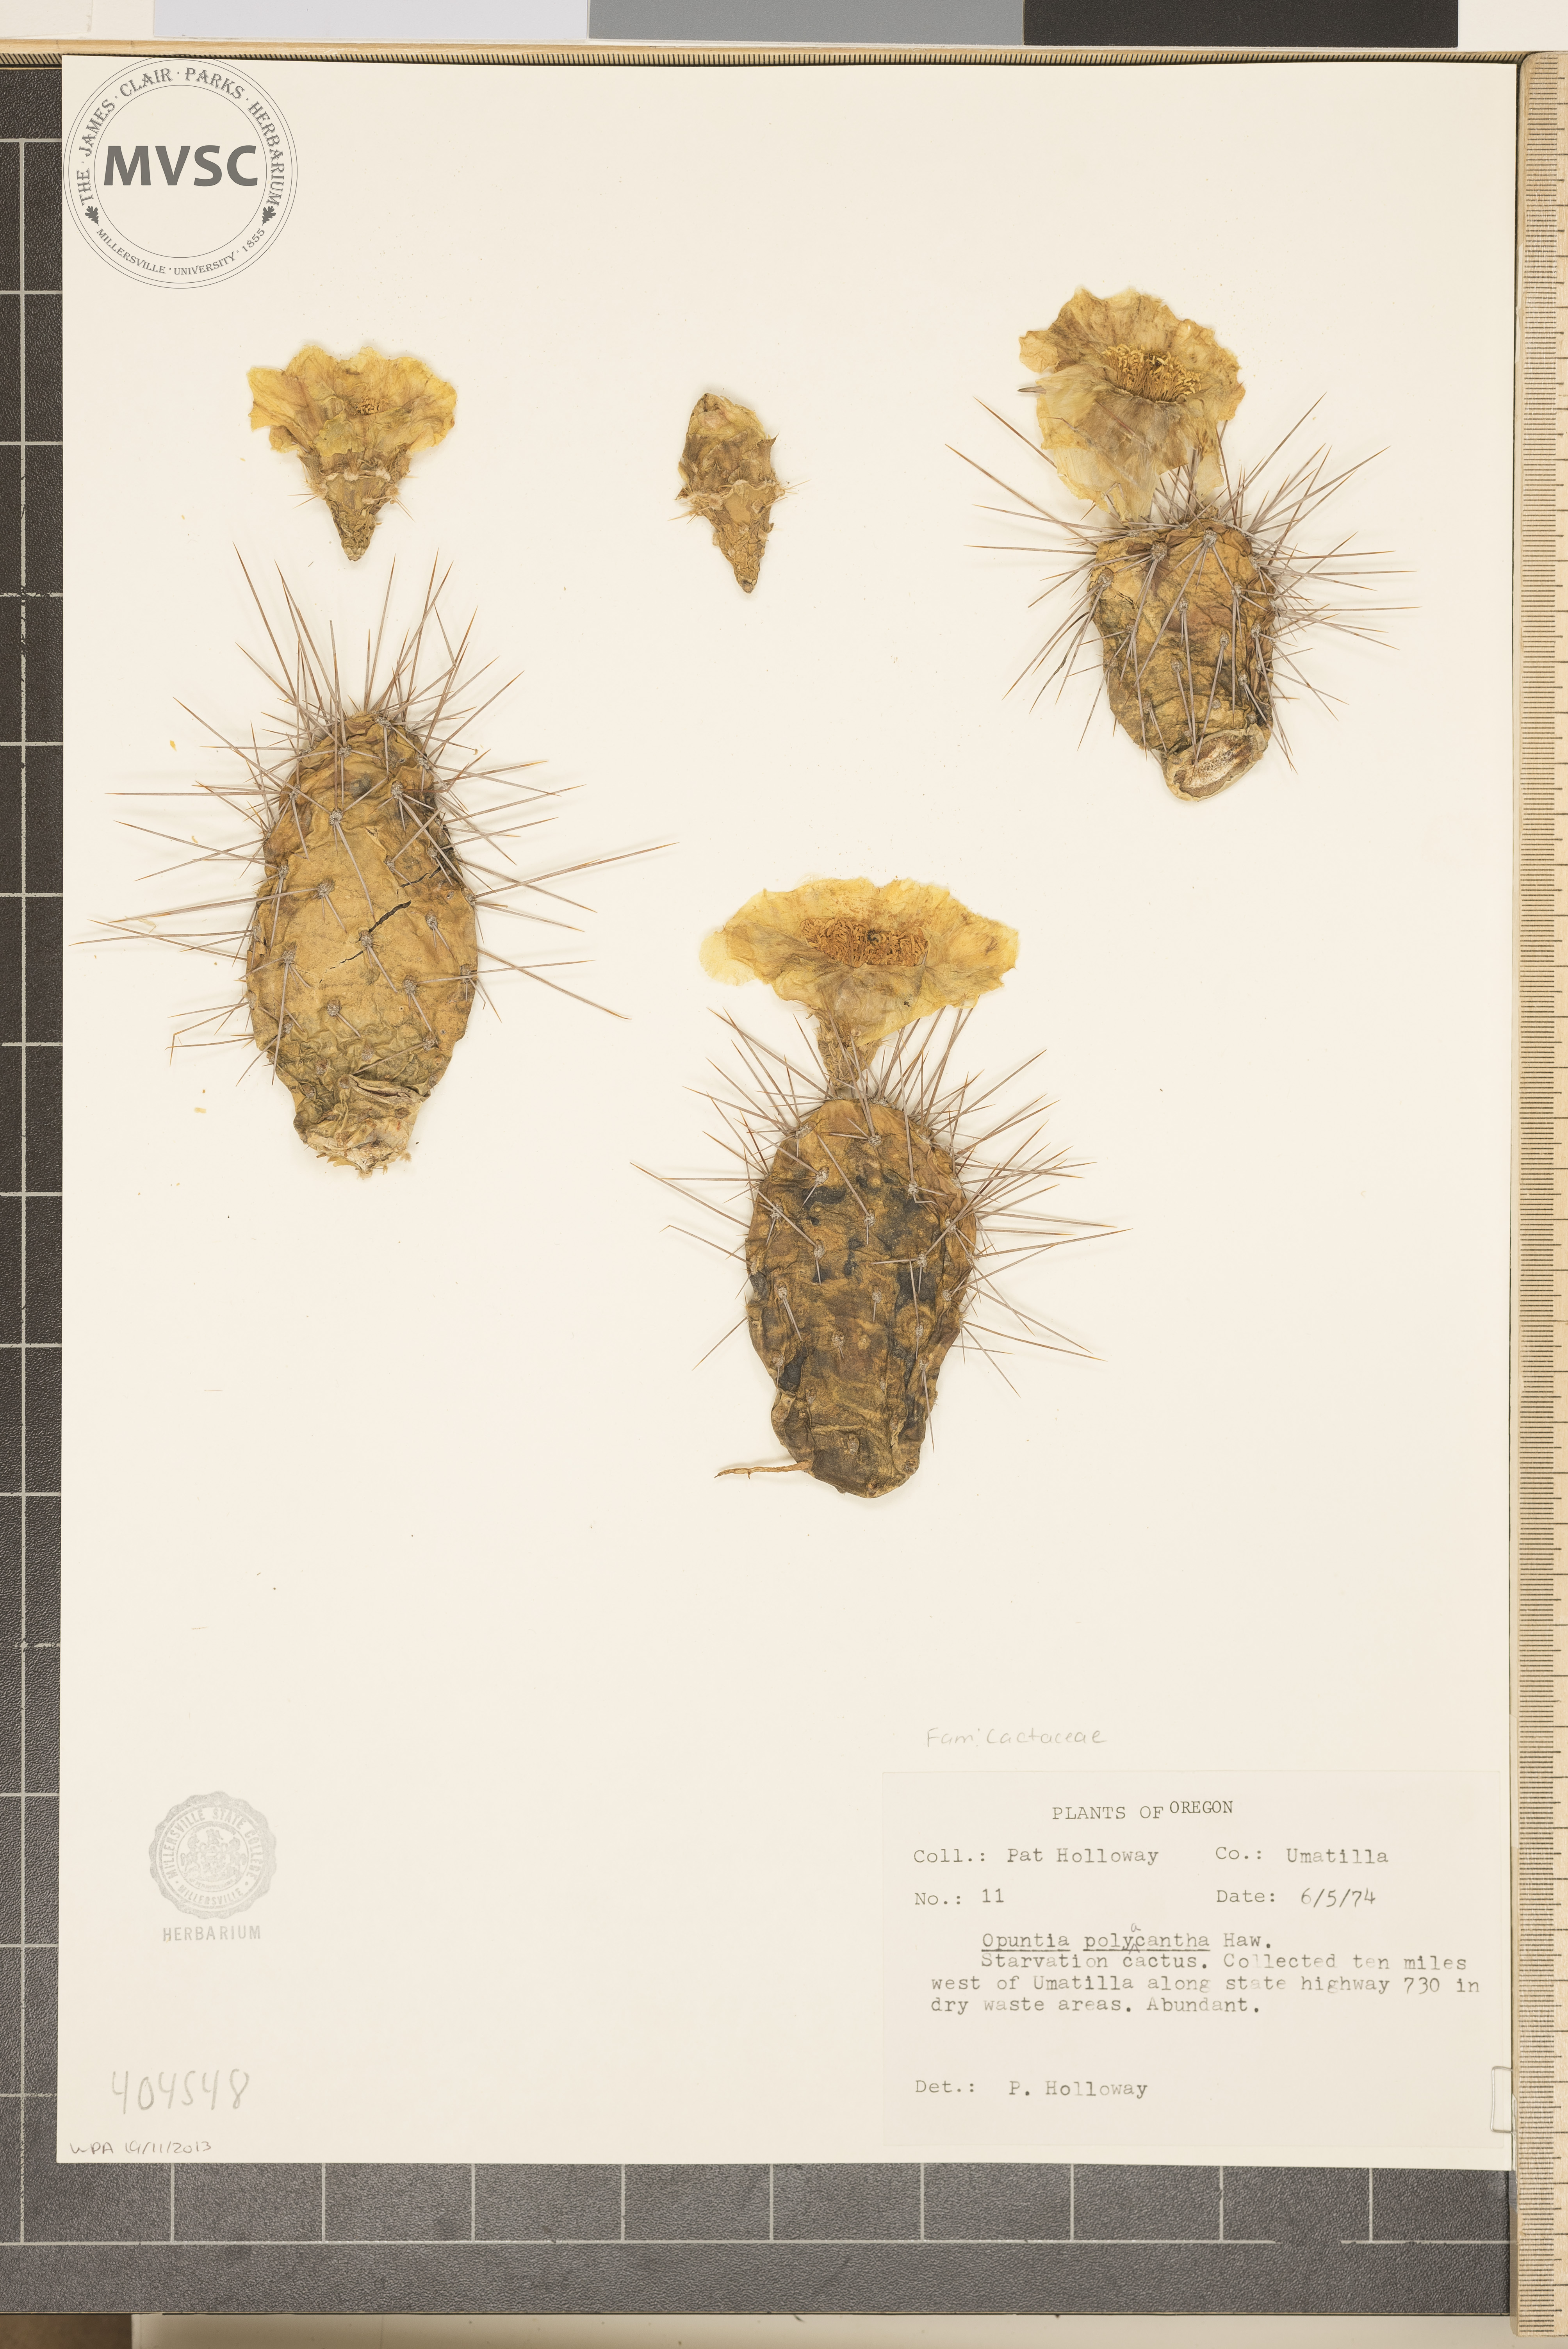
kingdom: Plantae
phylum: Tracheophyta
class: Magnoliopsida
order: Caryophyllales
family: Cactaceae
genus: Opuntia
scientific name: Opuntia polyacantha
